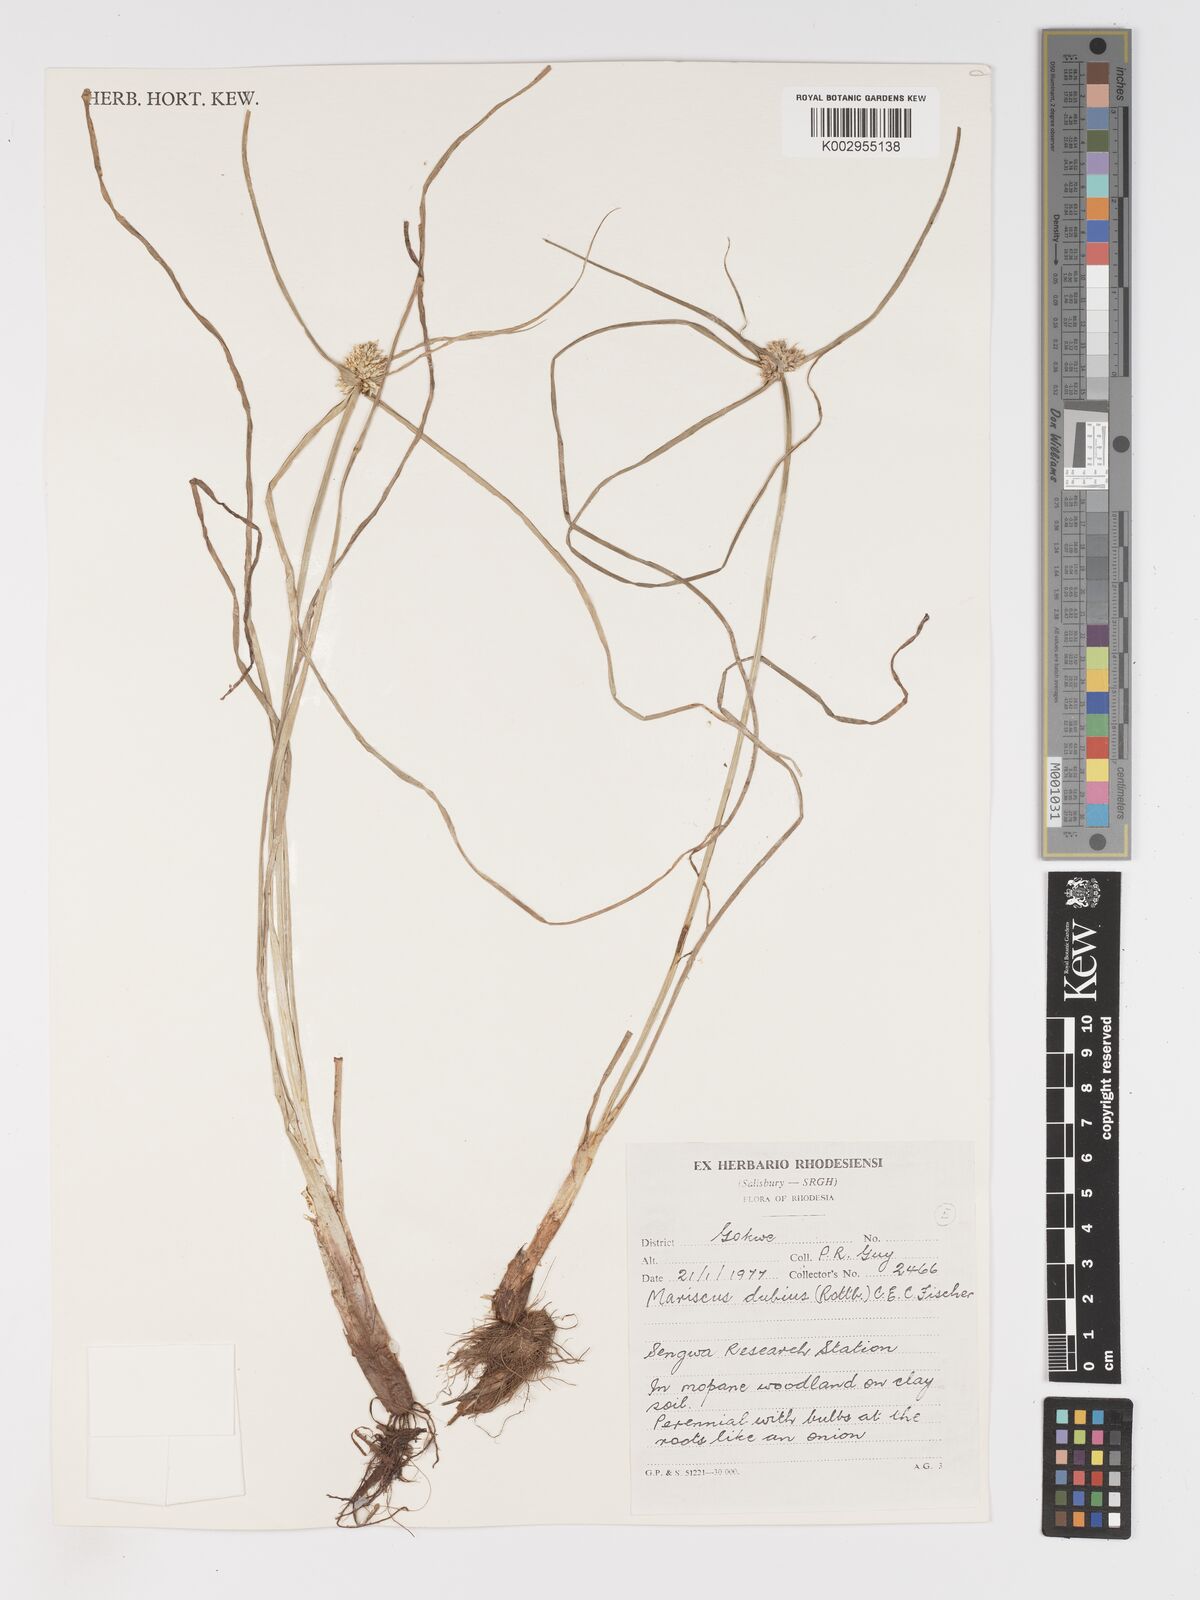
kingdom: Plantae
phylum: Tracheophyta
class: Liliopsida
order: Poales
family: Cyperaceae
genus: Cyperus
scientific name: Cyperus dubius
